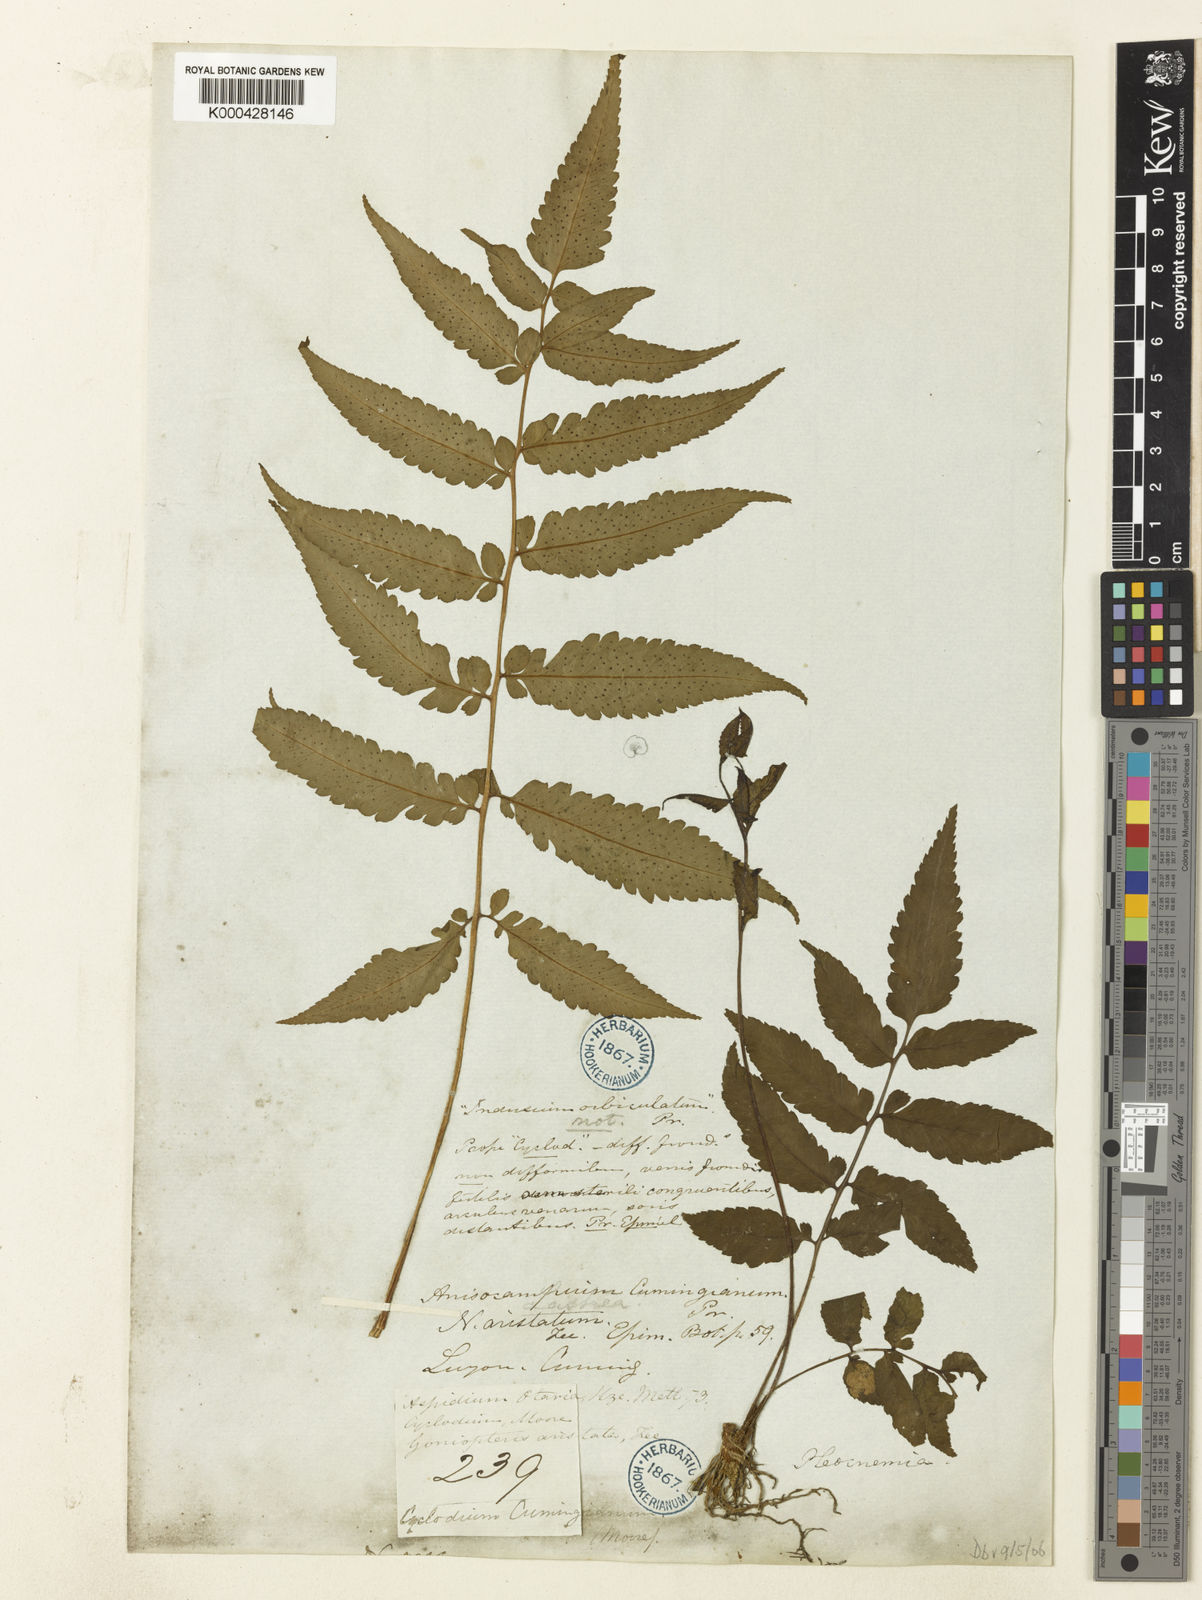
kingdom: Plantae
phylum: Tracheophyta
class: Polypodiopsida
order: Polypodiales
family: Athyriaceae
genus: Diplazium
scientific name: Diplazium melanochlamys
